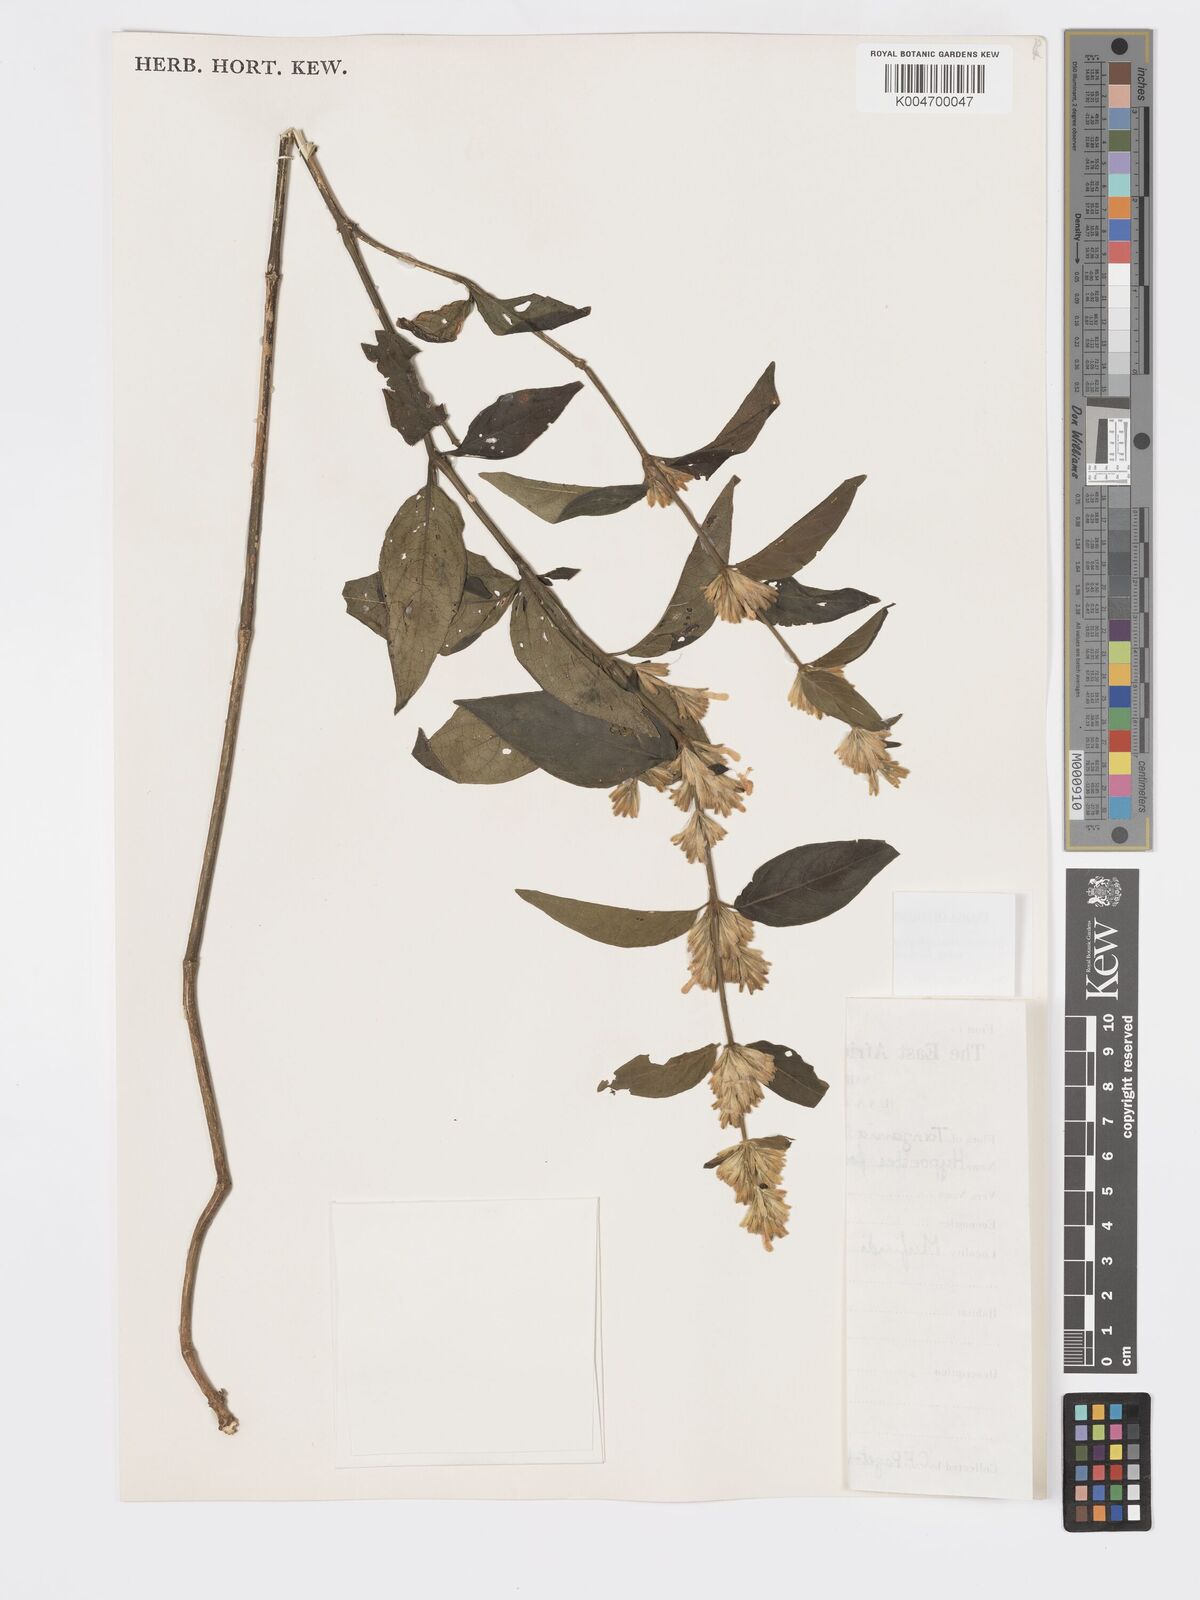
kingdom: Plantae
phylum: Tracheophyta
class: Magnoliopsida
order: Lamiales
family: Acanthaceae
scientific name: Acanthaceae
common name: Acanthaceae
